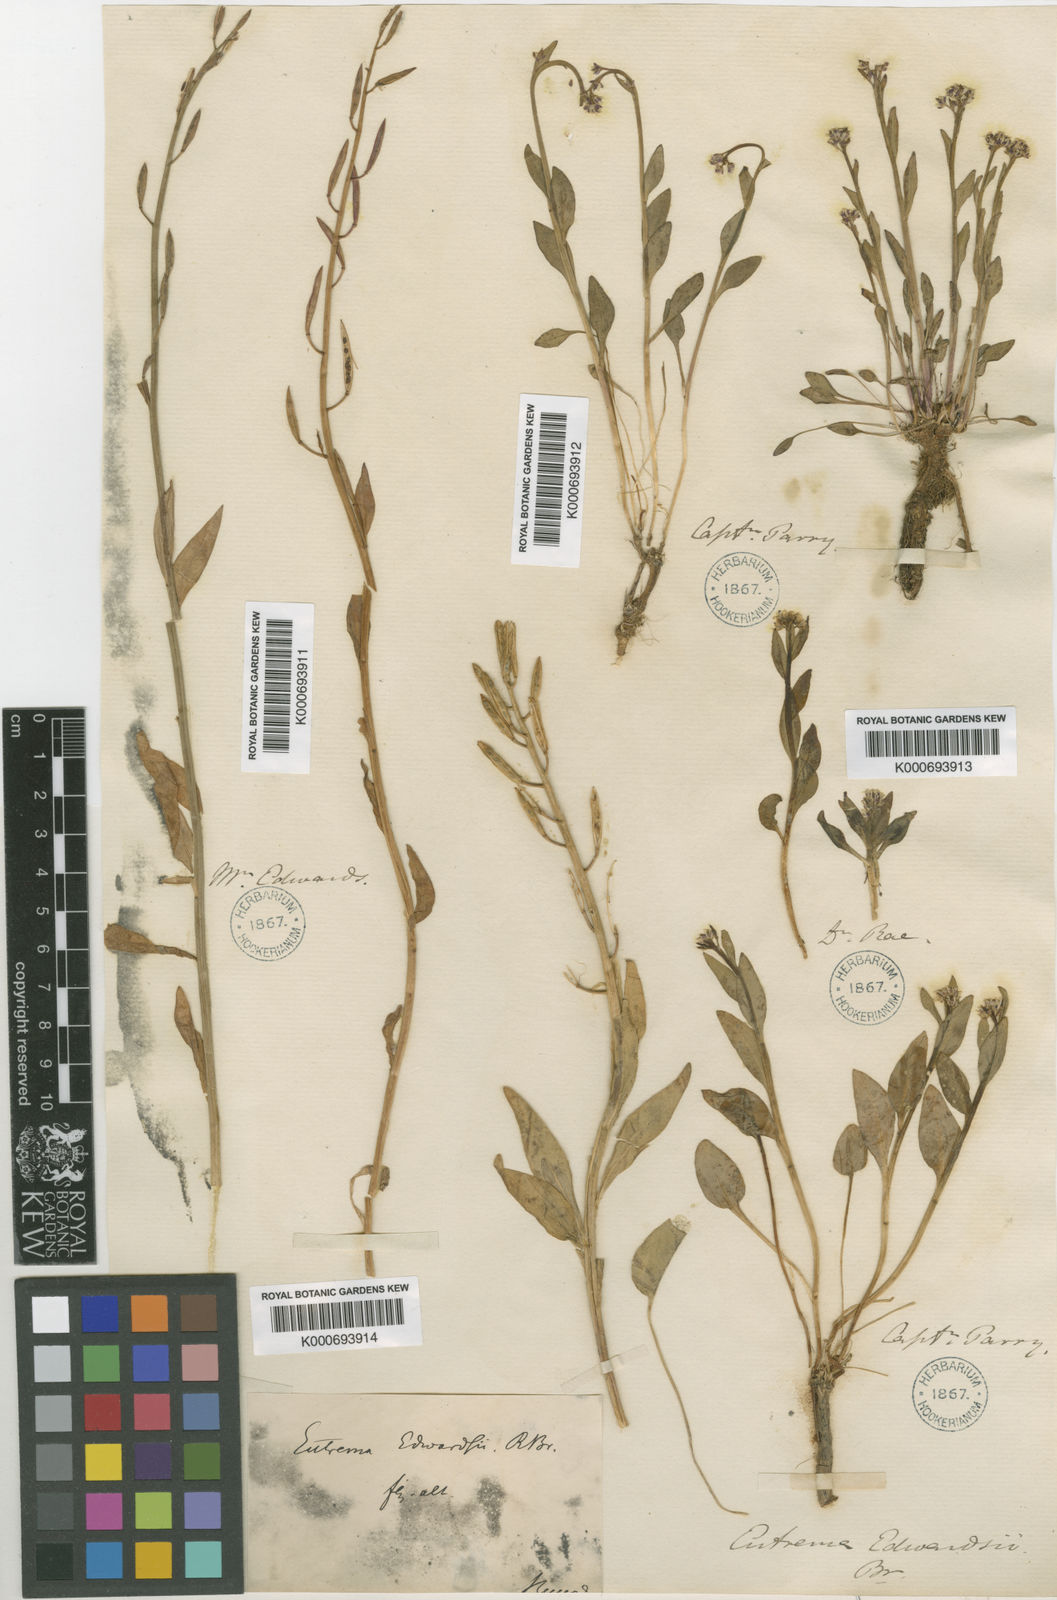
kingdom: Plantae
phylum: Tracheophyta
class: Magnoliopsida
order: Brassicales
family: Brassicaceae
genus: Eutrema
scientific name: Eutrema edwardsii
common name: Penland alpine fen mustard
